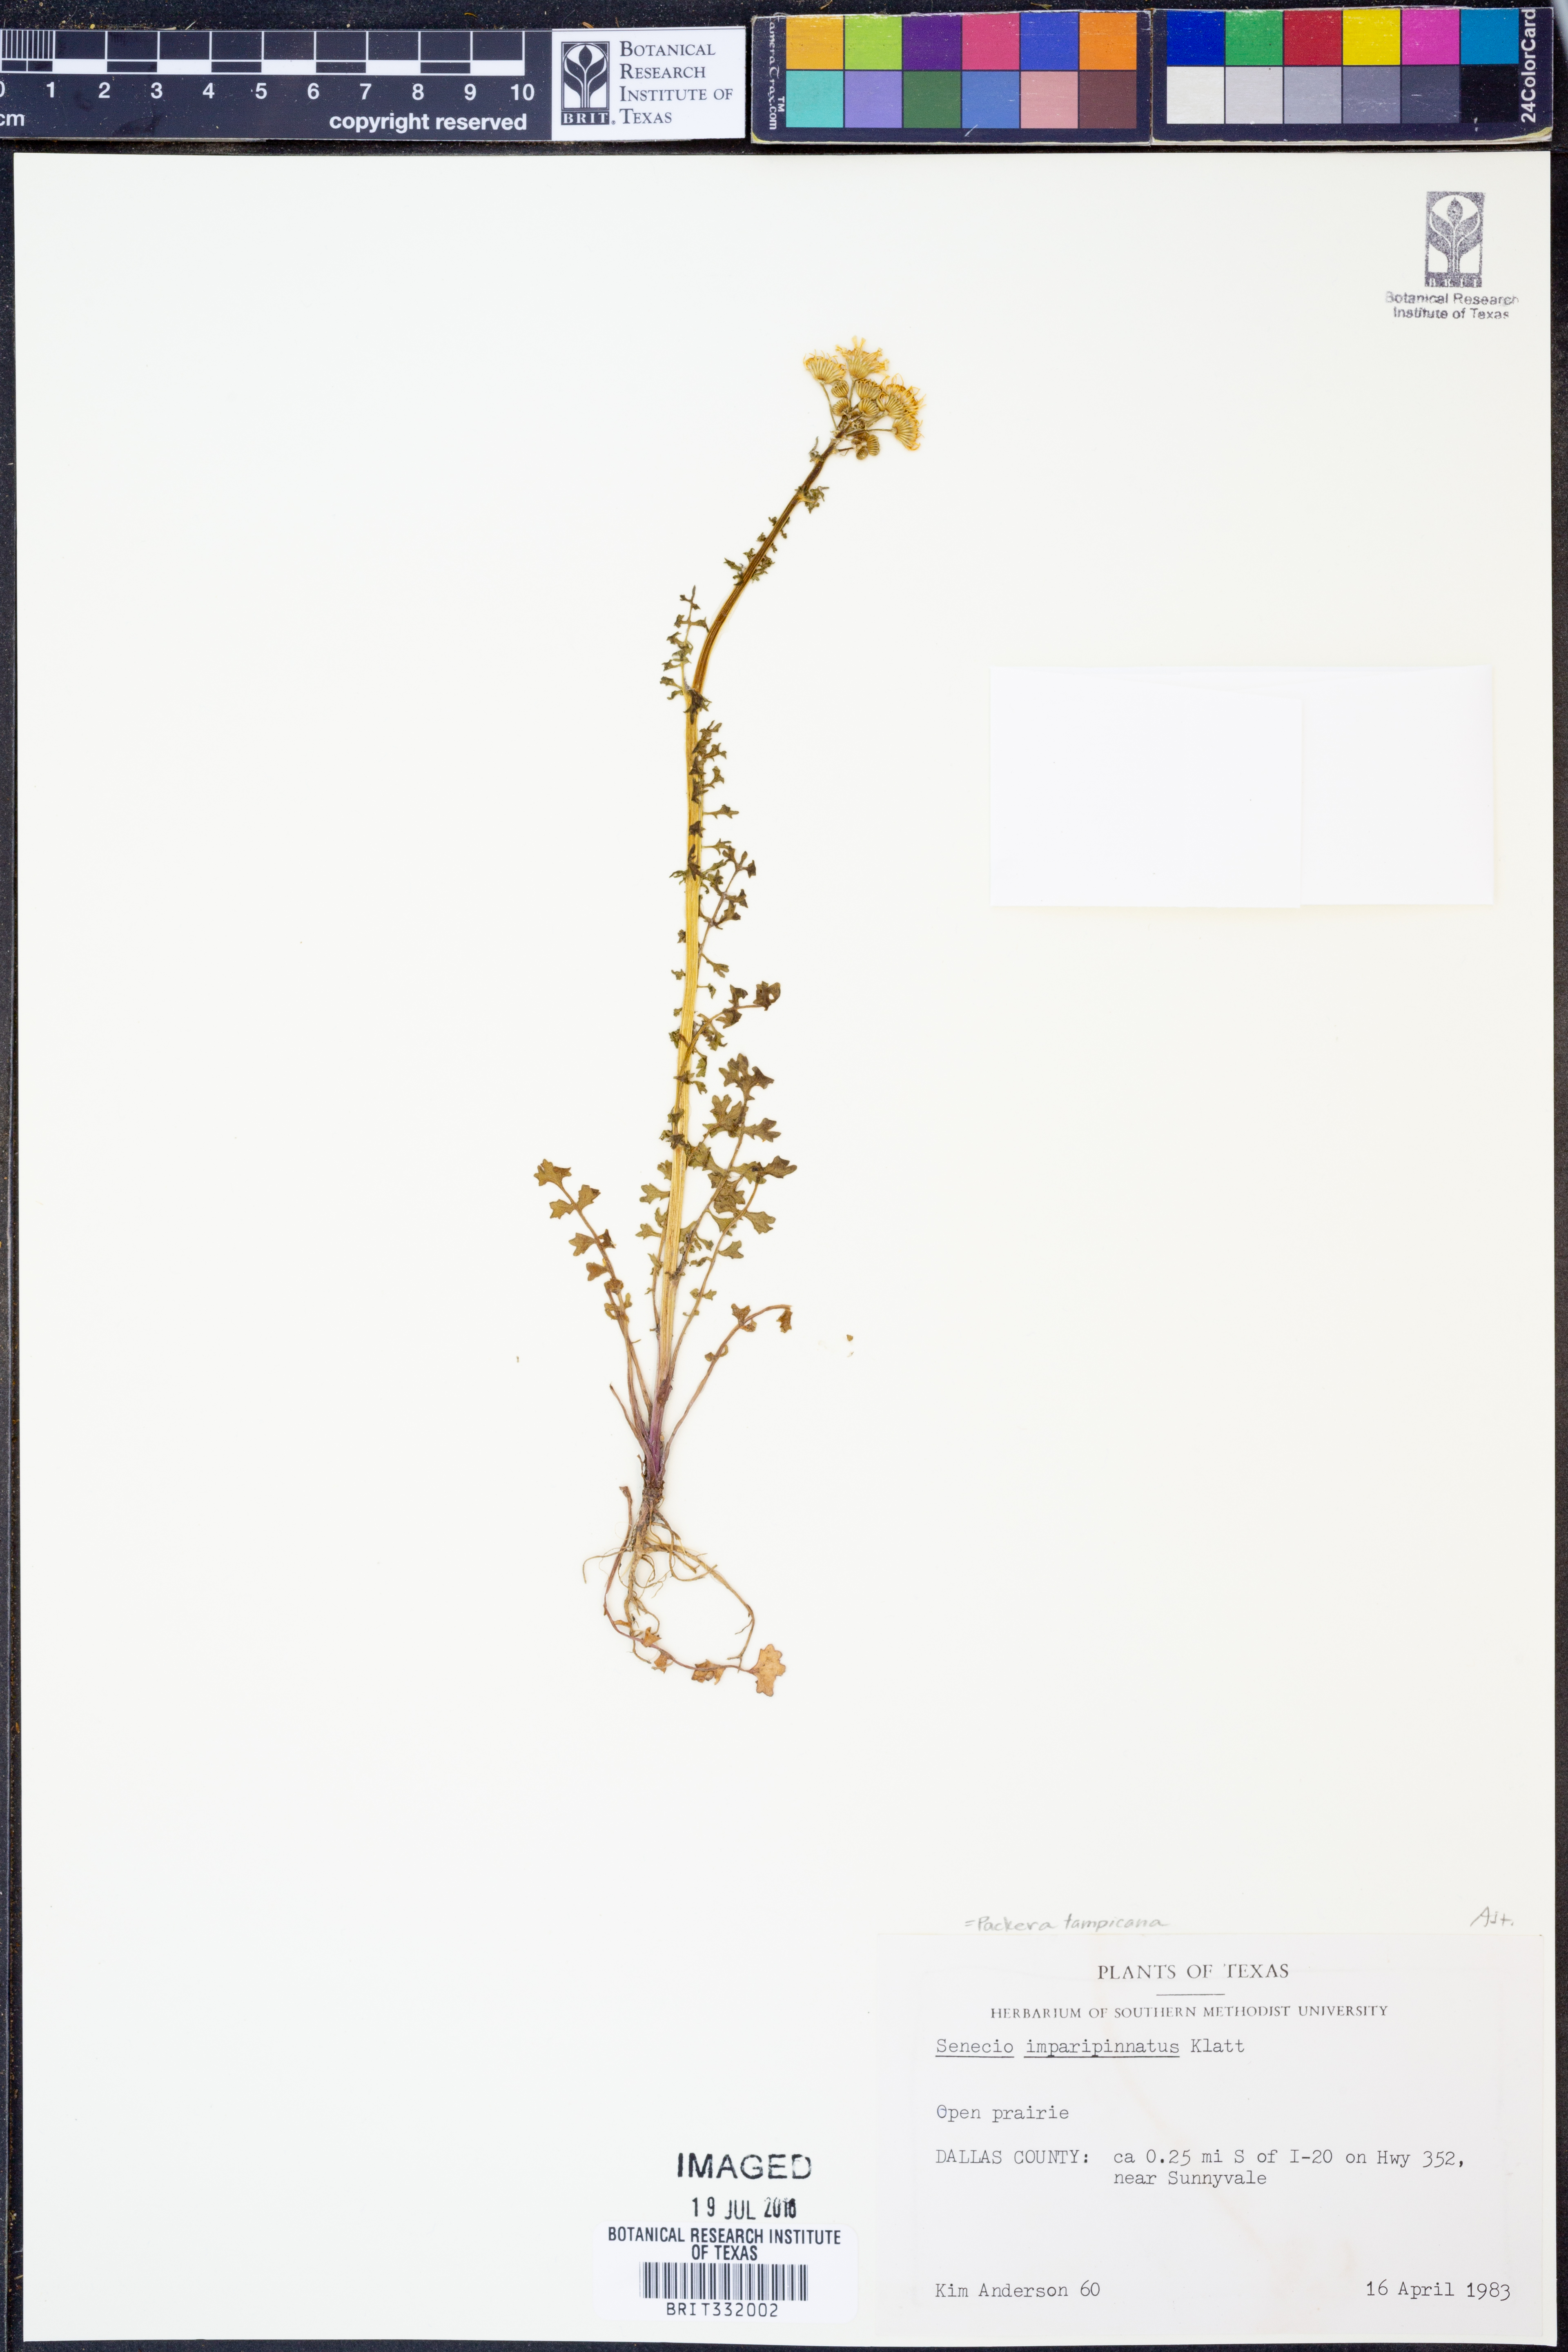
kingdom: Plantae
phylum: Tracheophyta
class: Magnoliopsida
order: Asterales
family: Asteraceae
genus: Packera
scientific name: Packera tampicana
